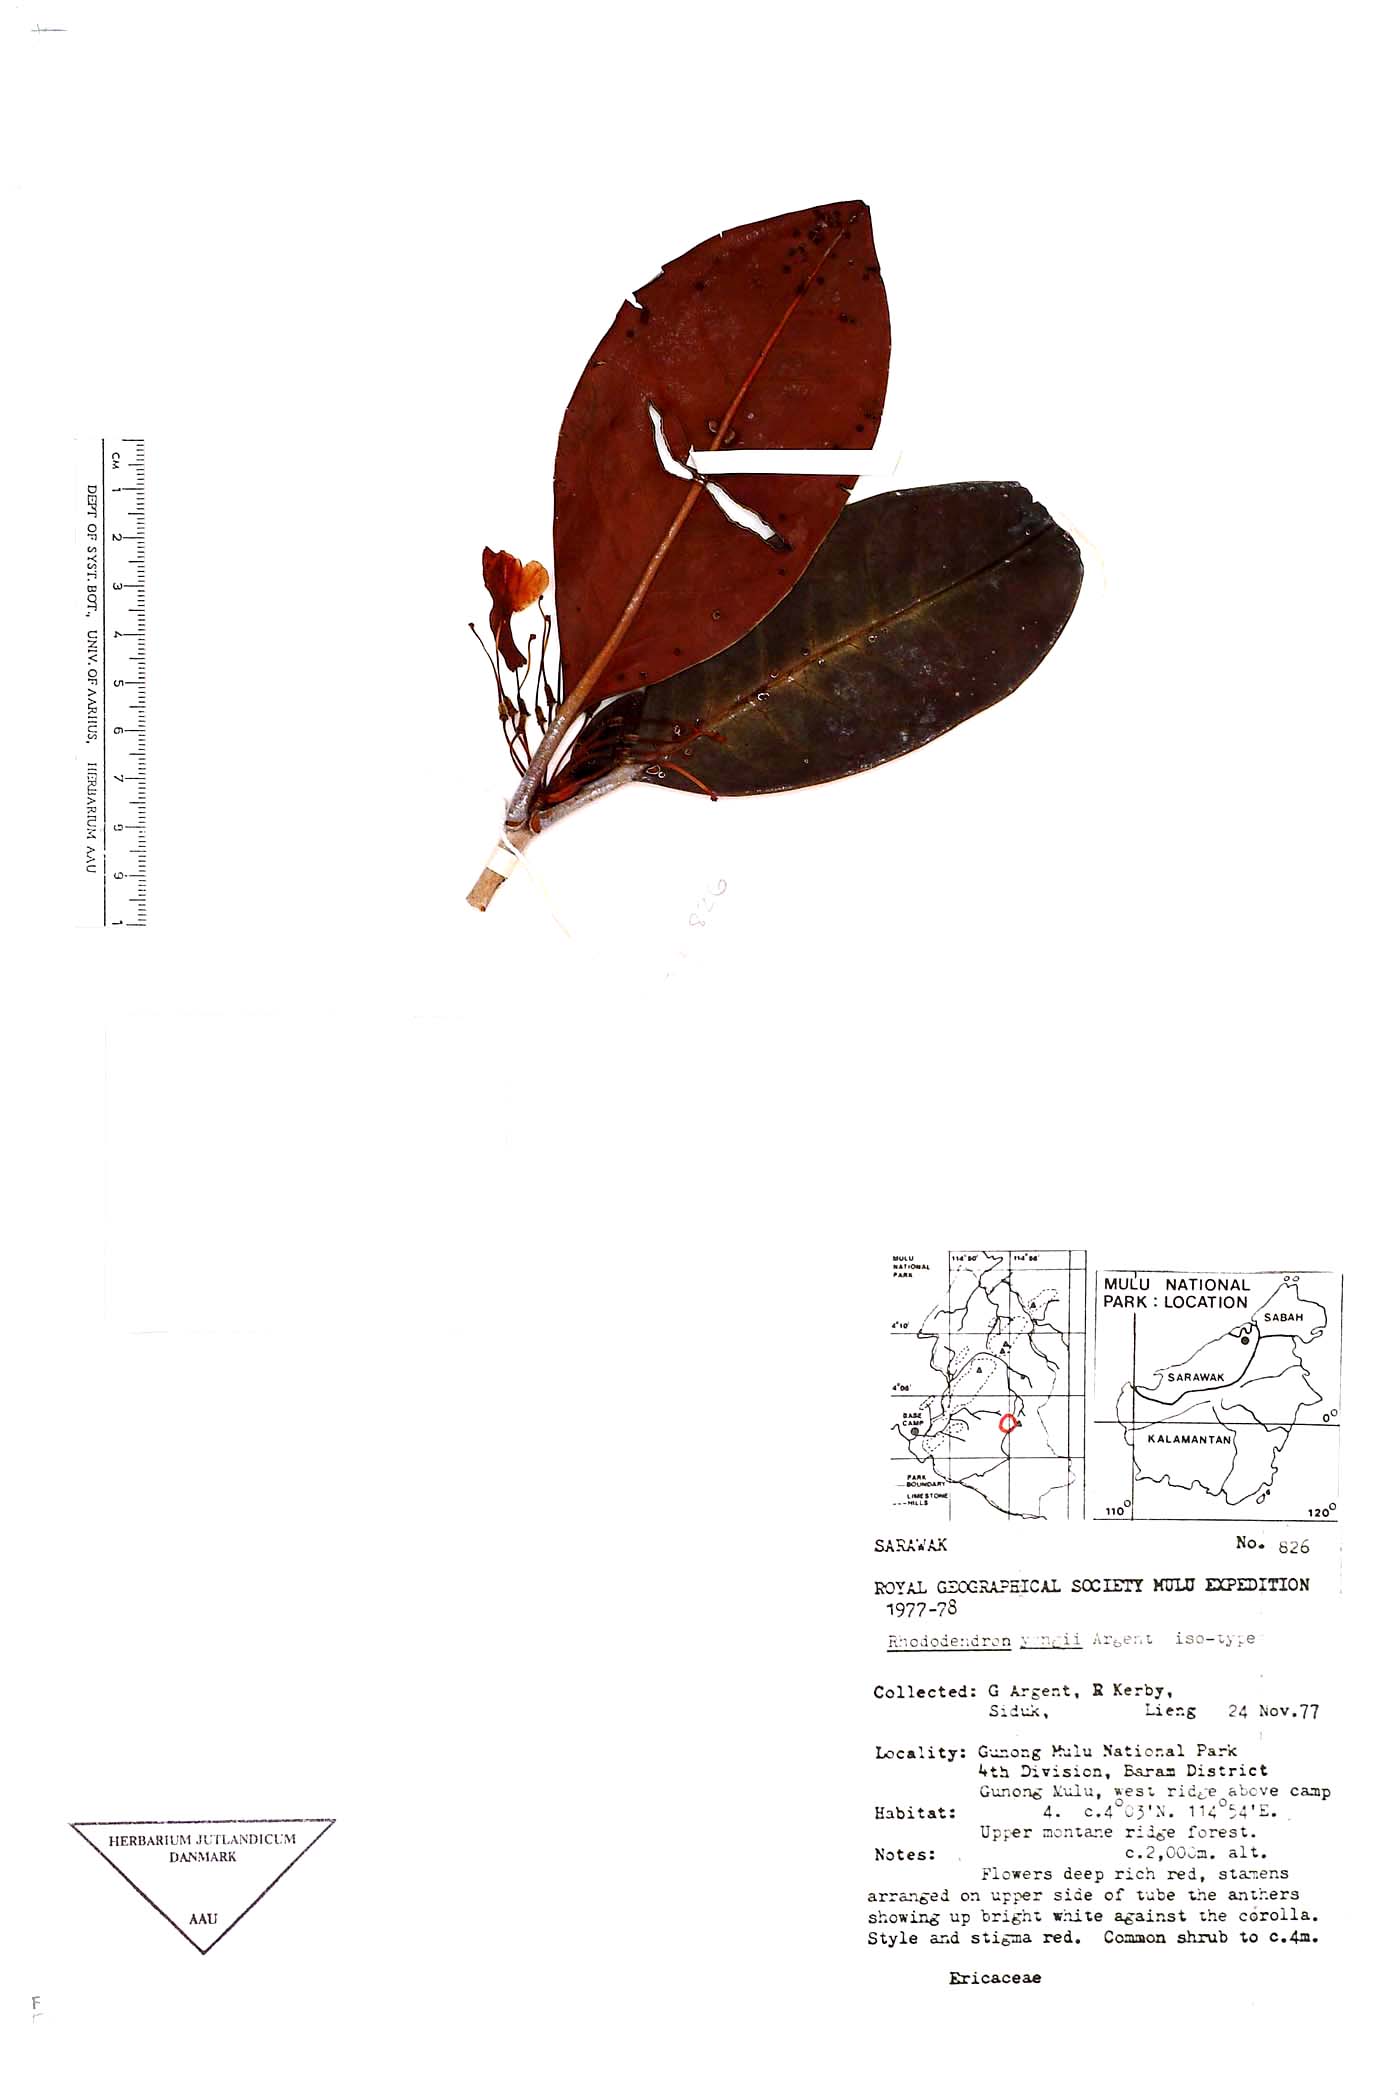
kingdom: Plantae
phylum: Tracheophyta
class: Magnoliopsida
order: Ericales
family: Ericaceae
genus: Rhododendron
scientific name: Rhododendron
